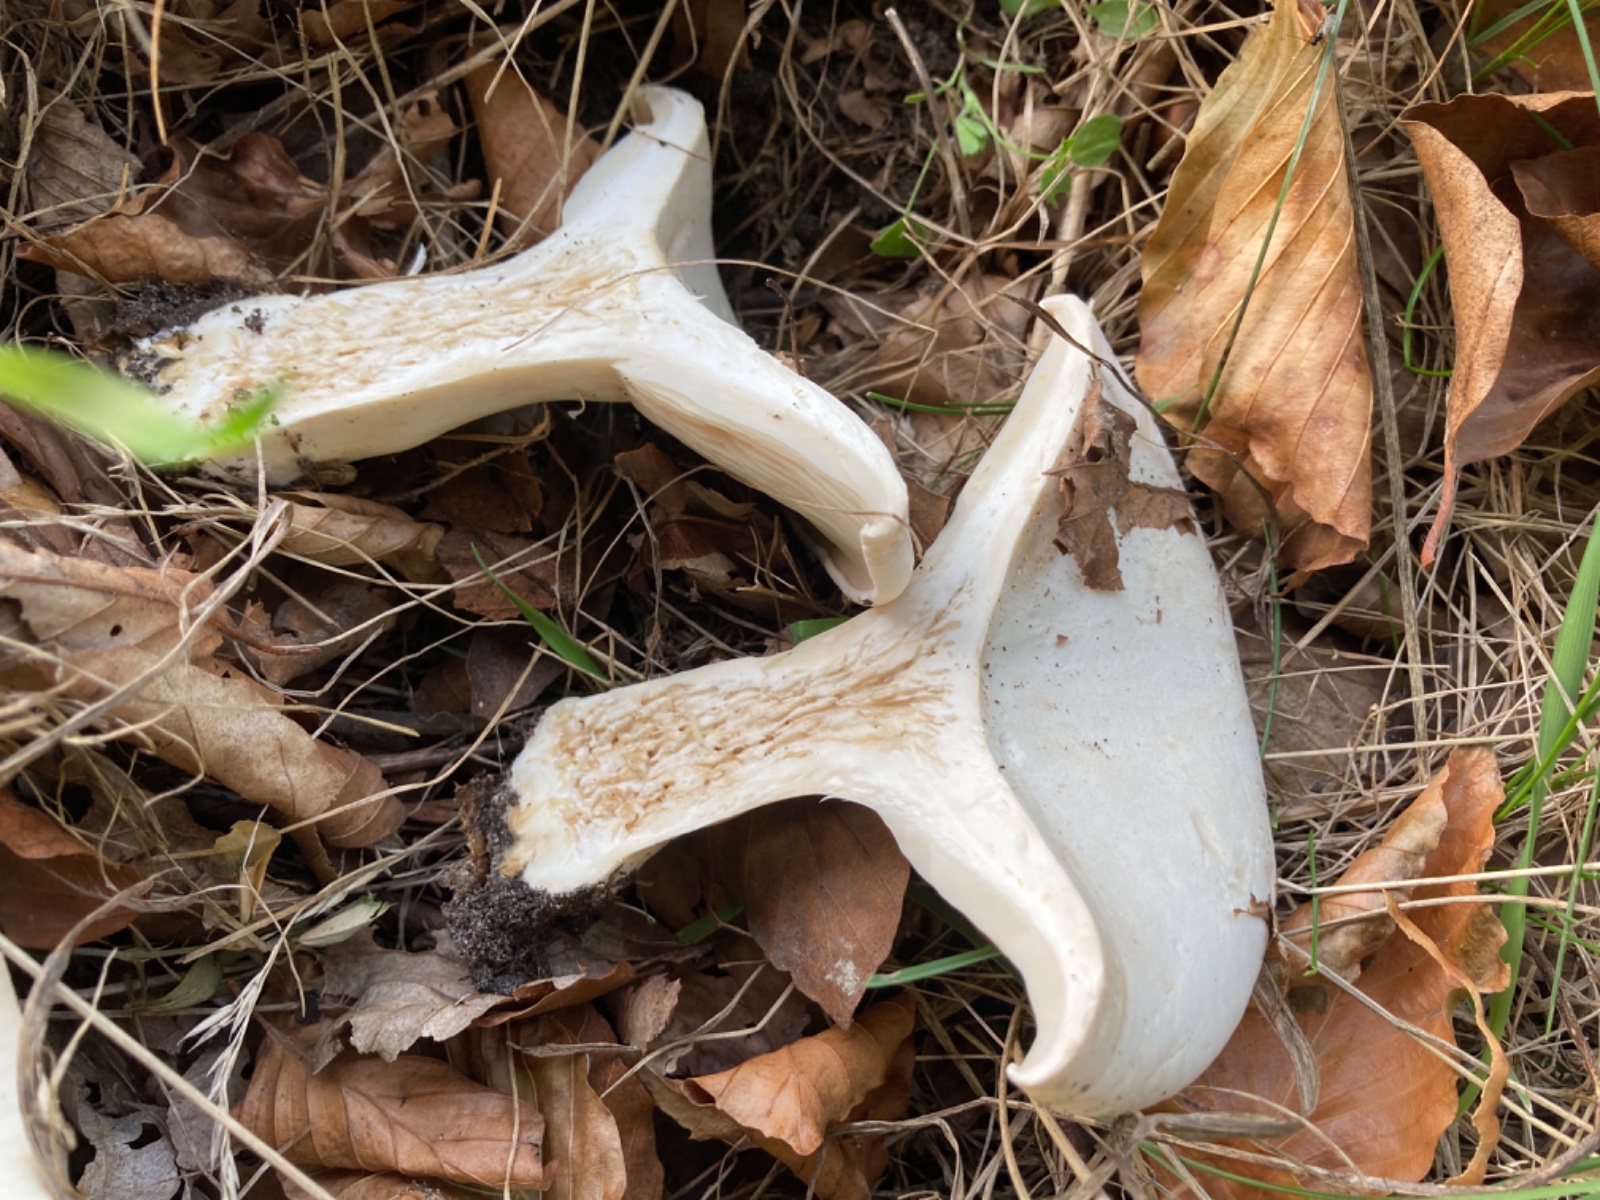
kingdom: Fungi
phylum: Basidiomycota
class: Agaricomycetes
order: Agaricales
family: Tricholomataceae
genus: Aspropaxillus
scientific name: Aspropaxillus giganteus
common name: kæmpe-tragtridderhat
